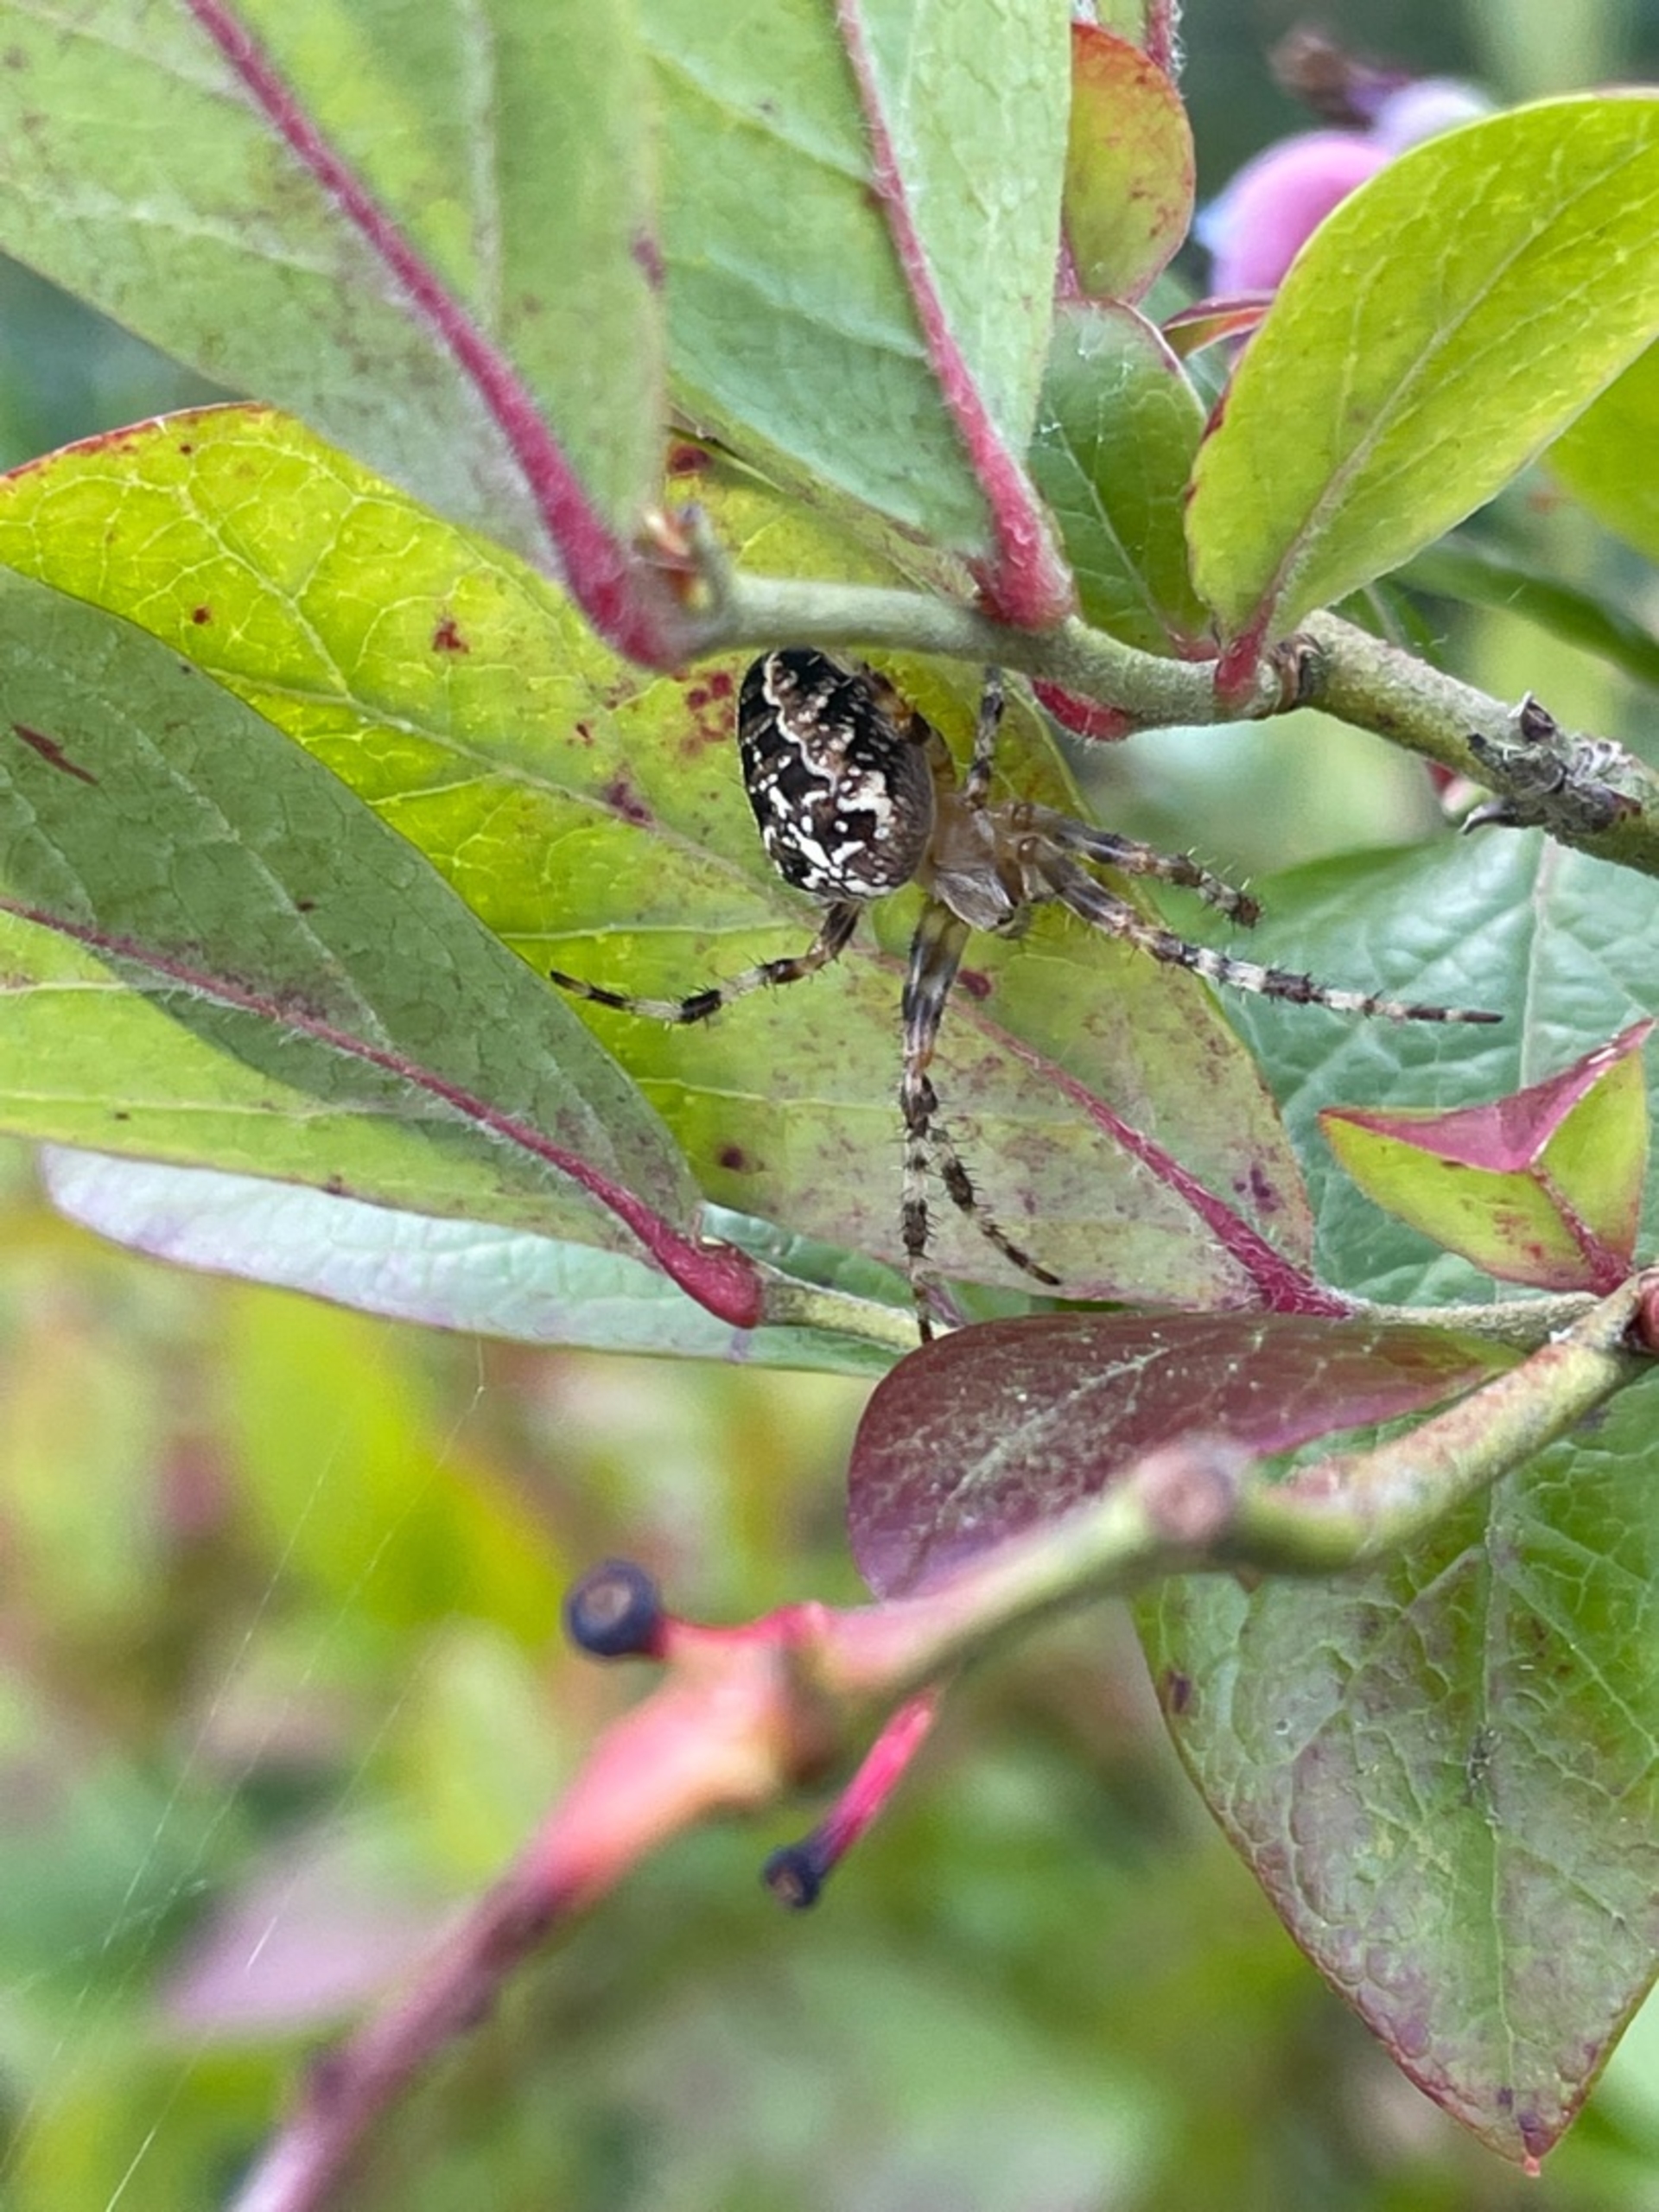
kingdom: Animalia
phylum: Arthropoda
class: Arachnida
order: Araneae
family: Araneidae
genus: Araneus
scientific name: Araneus diadematus
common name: Korsedderkop
